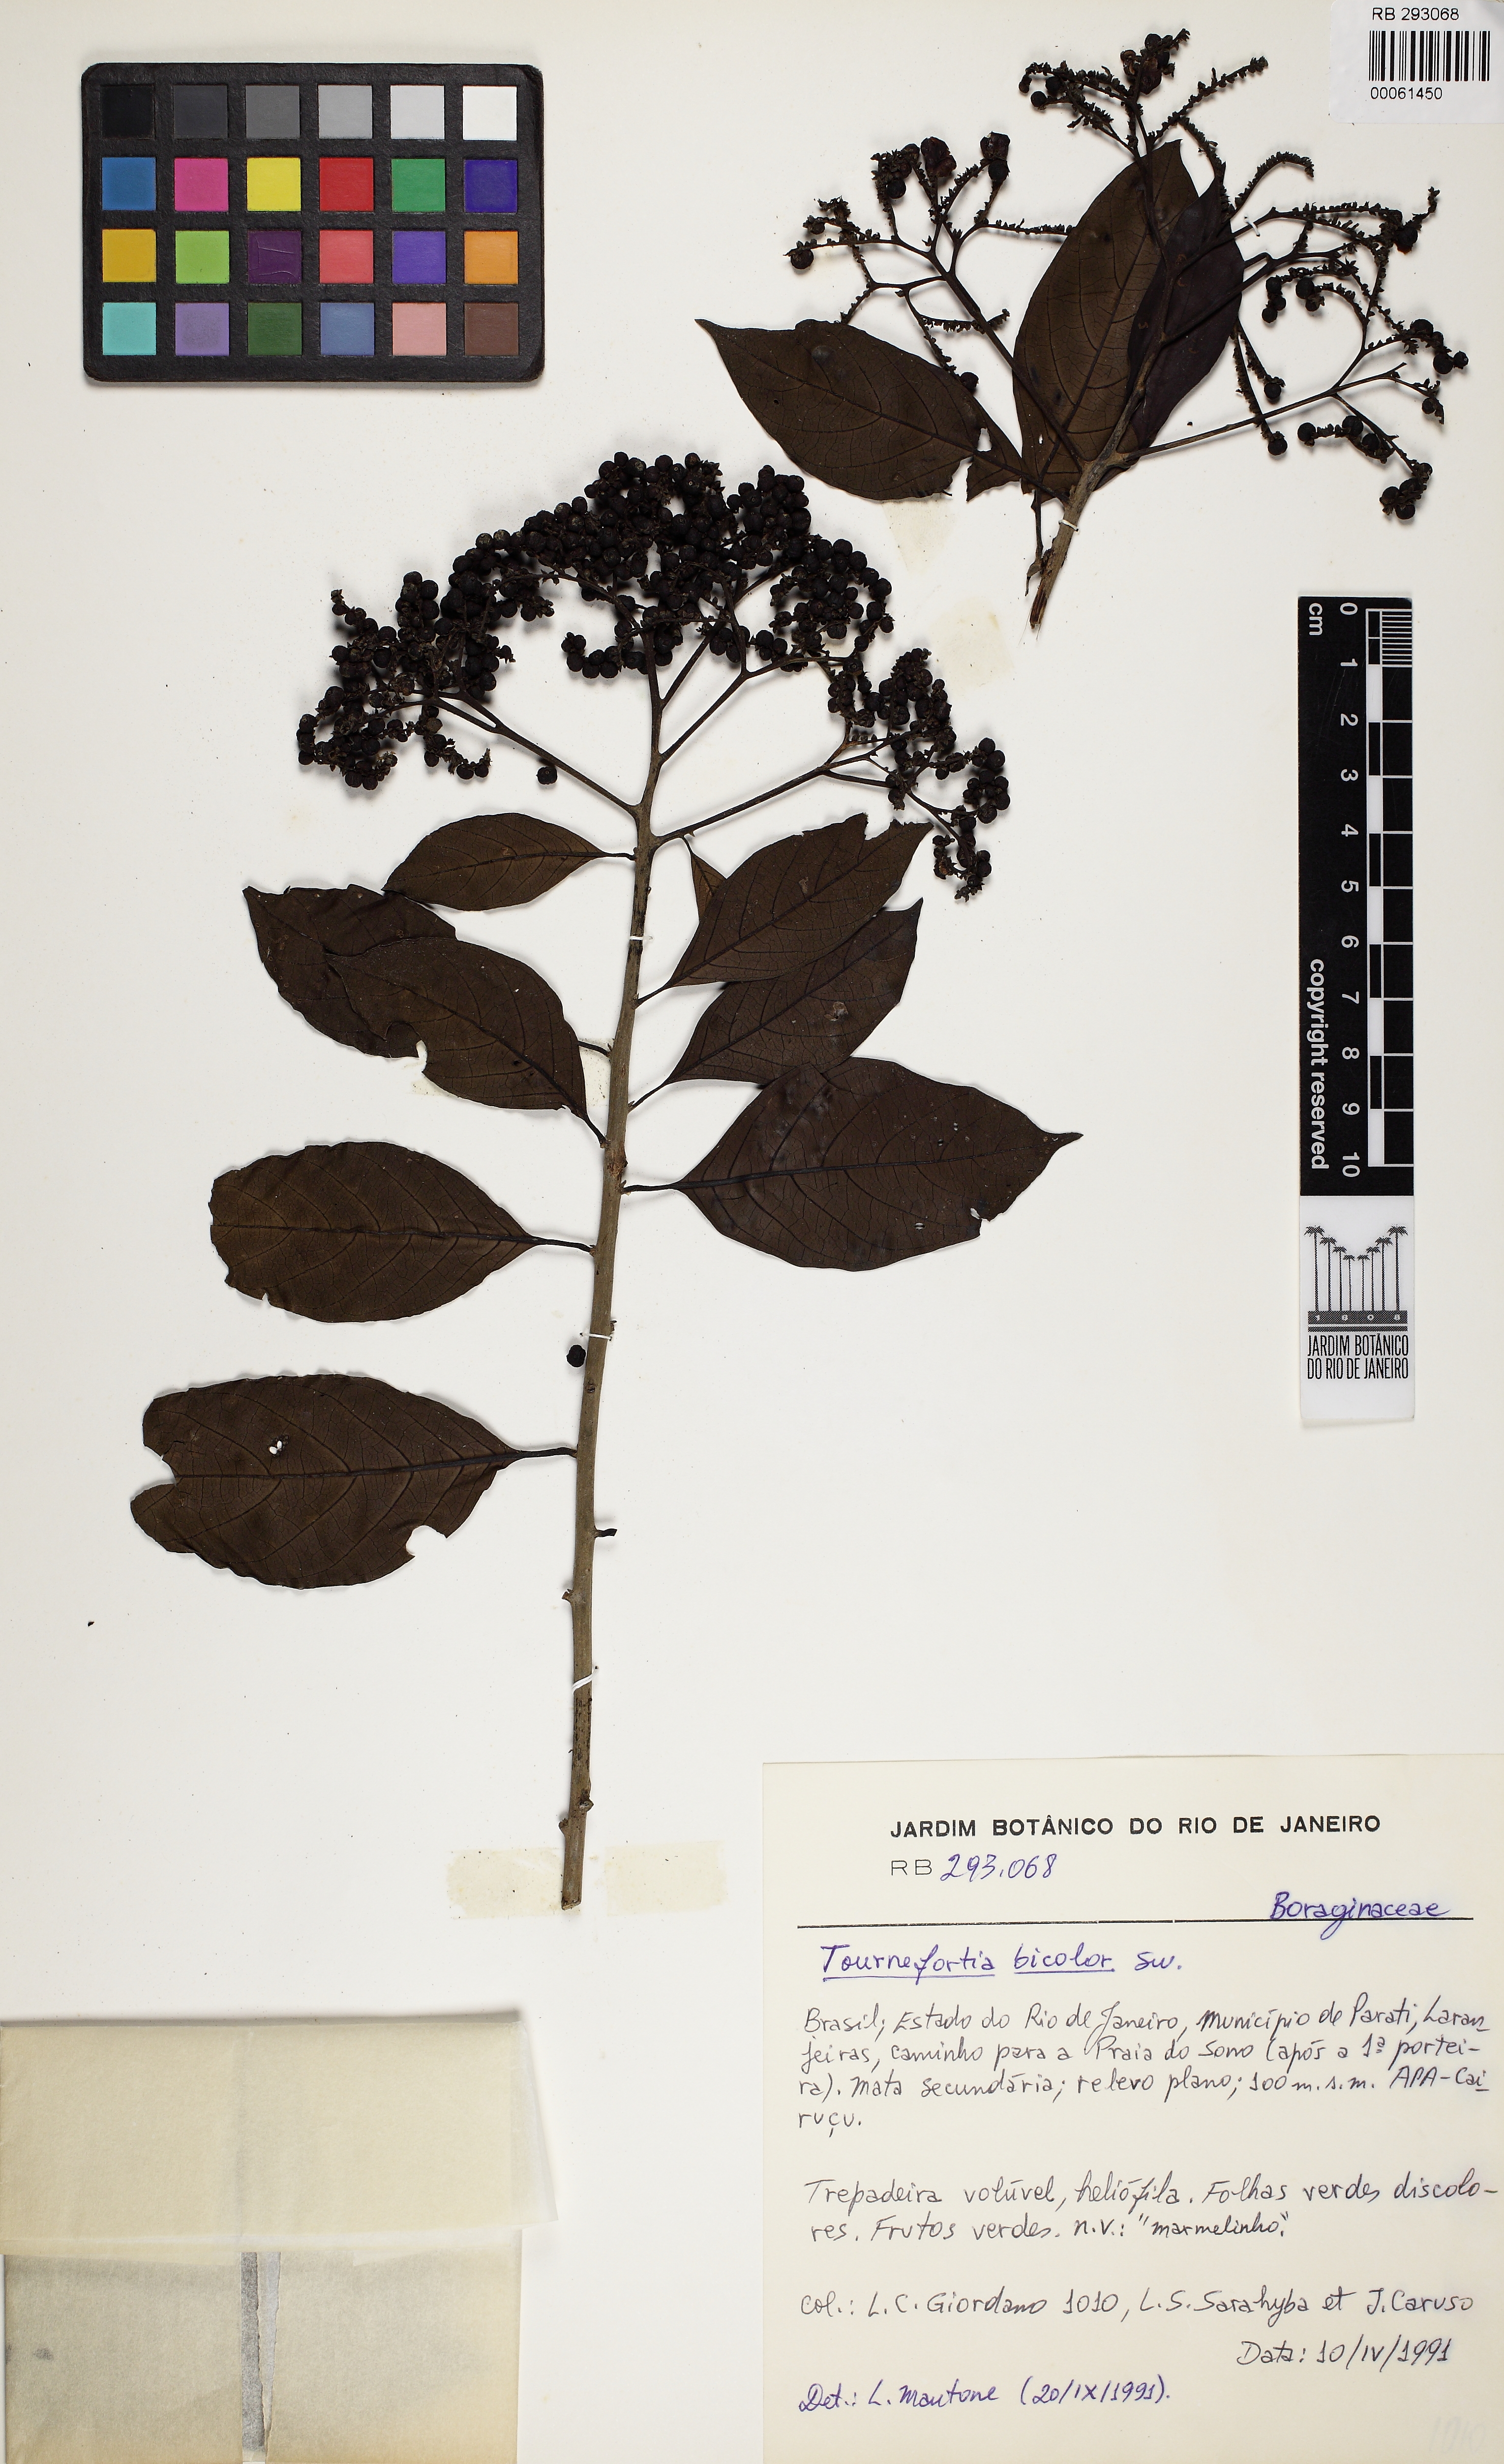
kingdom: Plantae
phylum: Tracheophyta
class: Magnoliopsida
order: Boraginales
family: Heliotropiaceae
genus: Heliotropium
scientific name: Heliotropium verdcourtii
